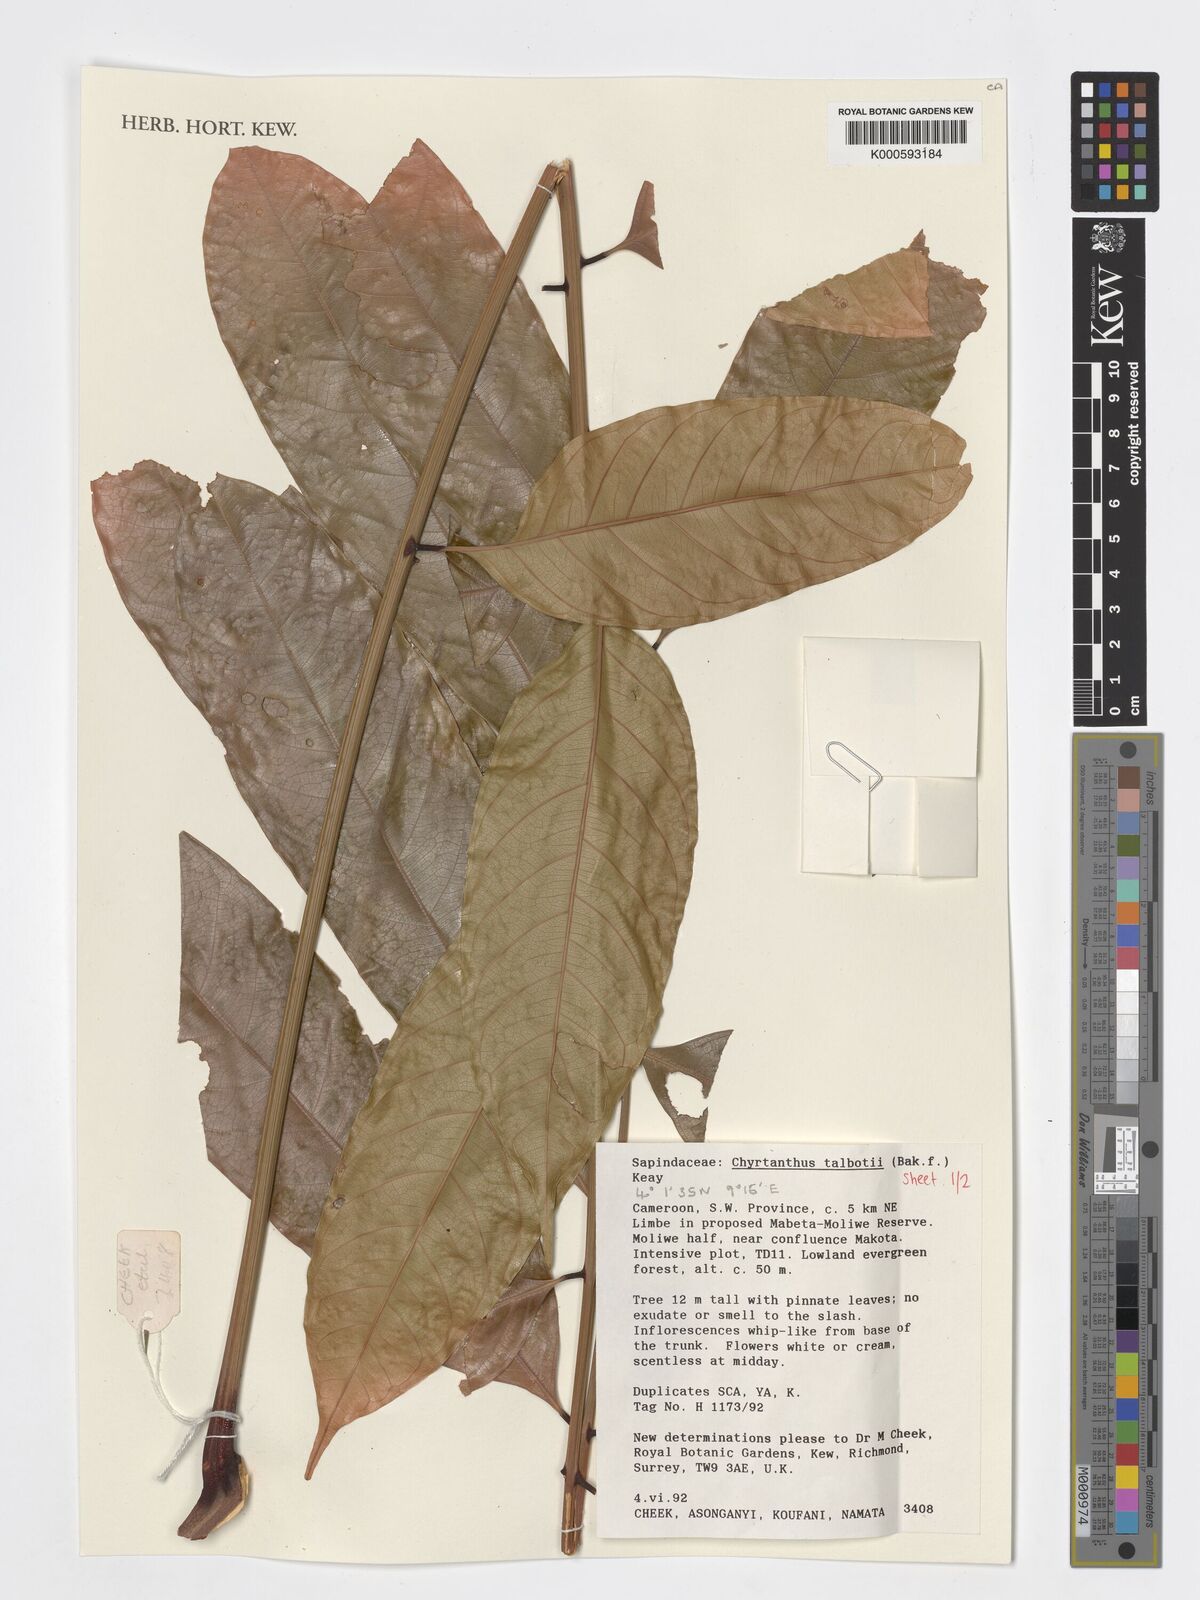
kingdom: Plantae
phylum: Tracheophyta
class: Magnoliopsida
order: Sapindales
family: Sapindaceae
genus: Chytranthus
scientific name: Chytranthus talbotii
